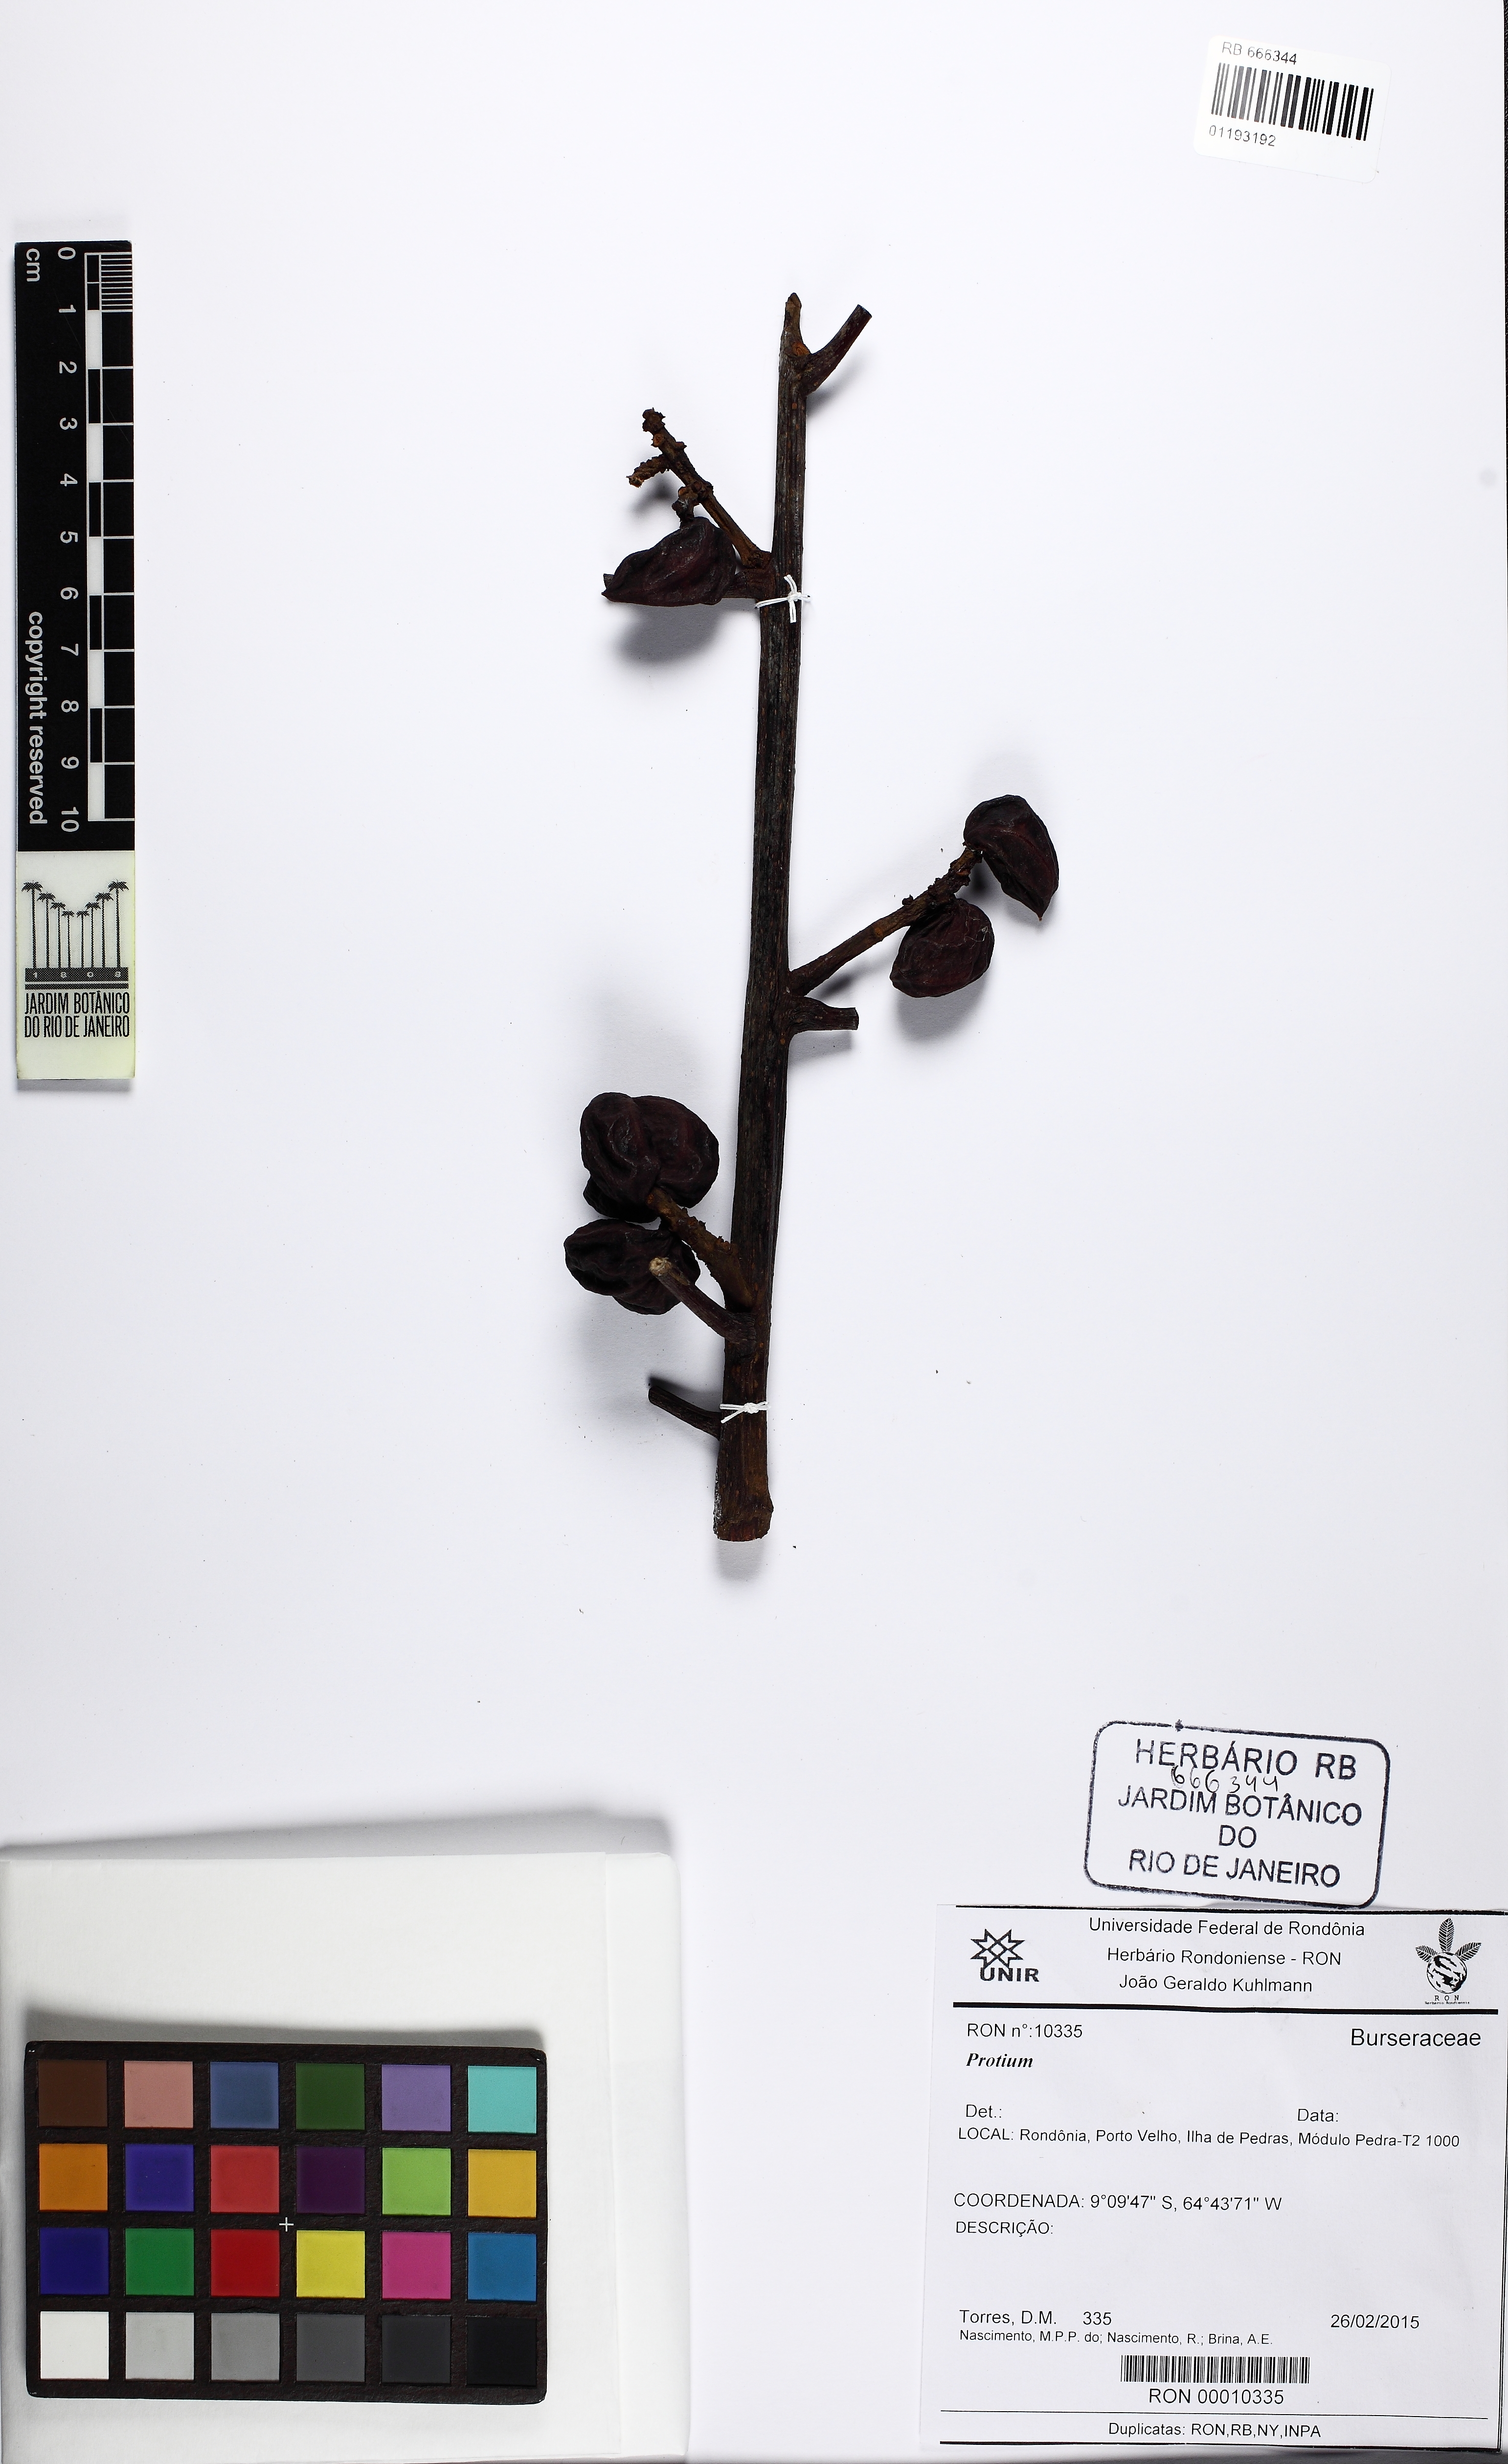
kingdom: Plantae
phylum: Tracheophyta
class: Magnoliopsida
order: Sapindales
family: Burseraceae
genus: Protium
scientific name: Protium
